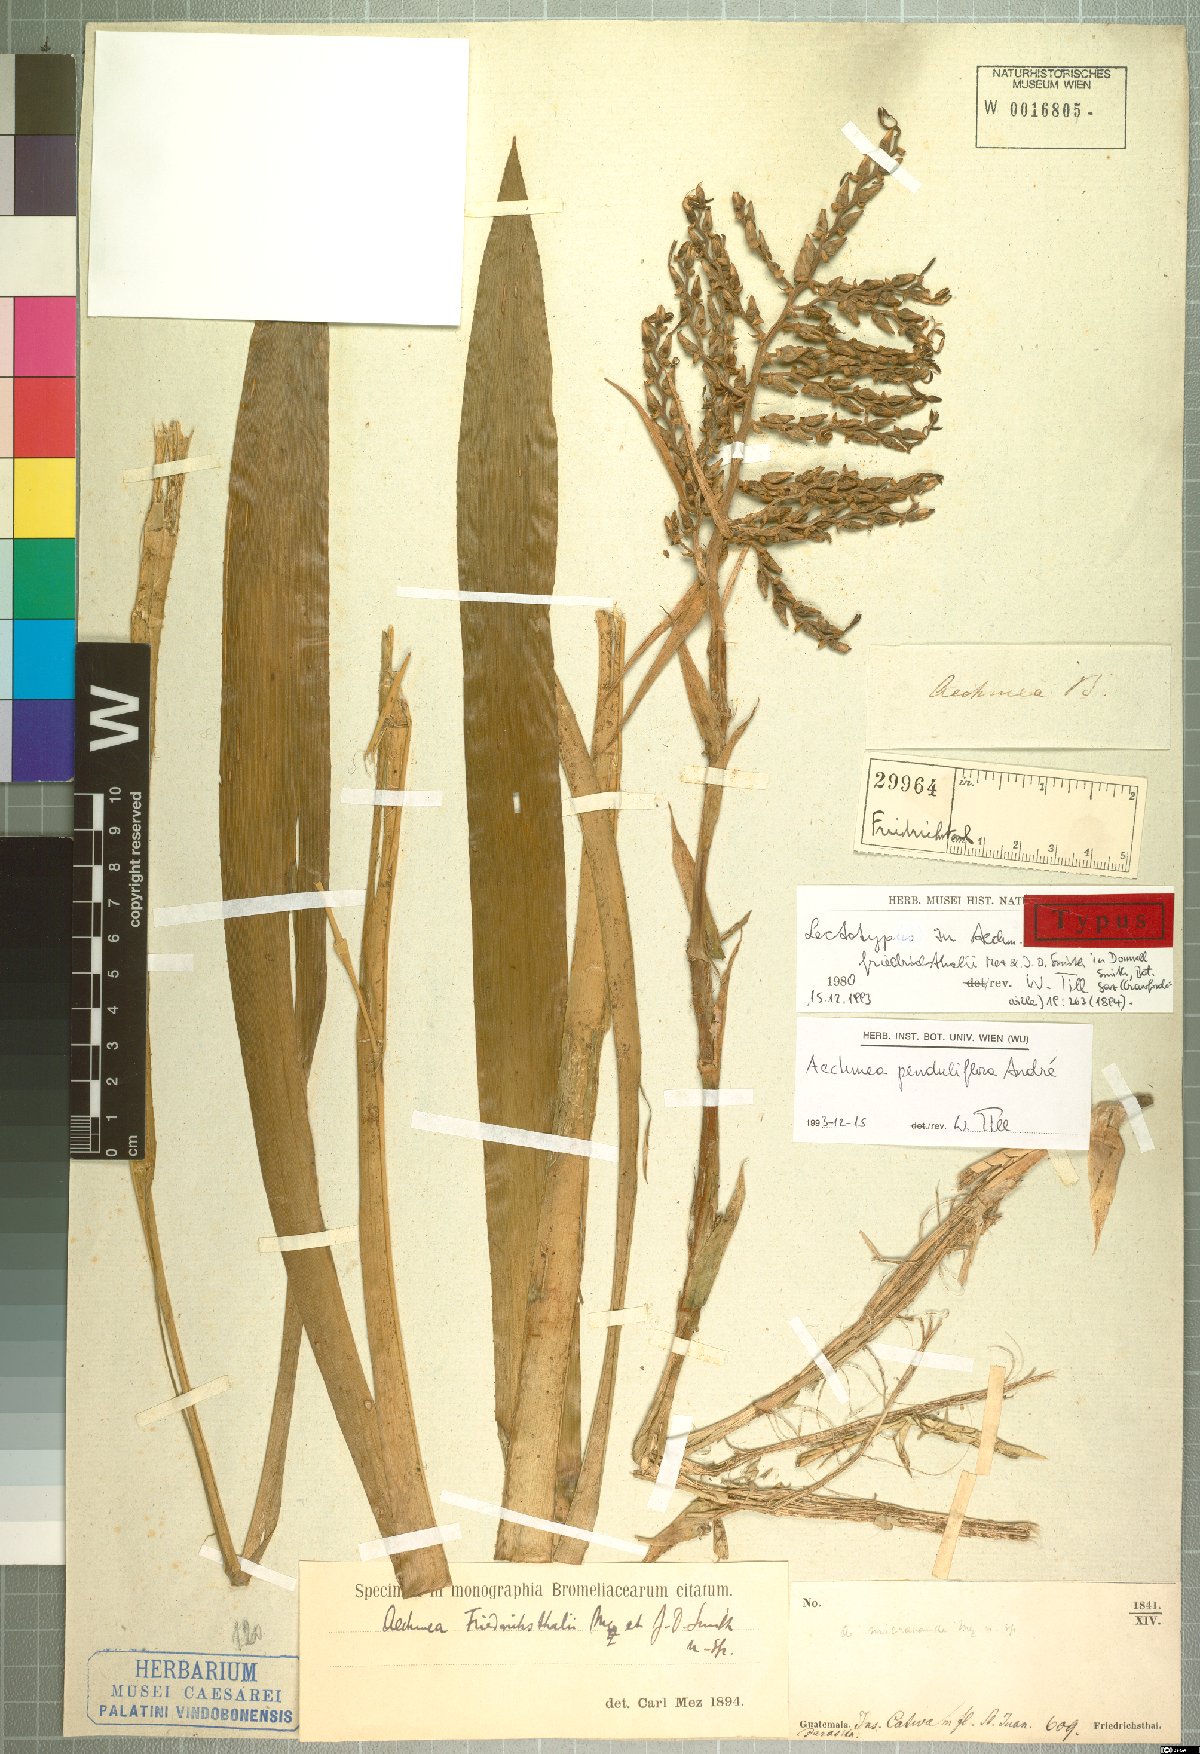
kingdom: Plantae
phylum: Tracheophyta
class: Liliopsida
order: Poales
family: Bromeliaceae
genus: Aechmea
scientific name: Aechmea penduliflora
